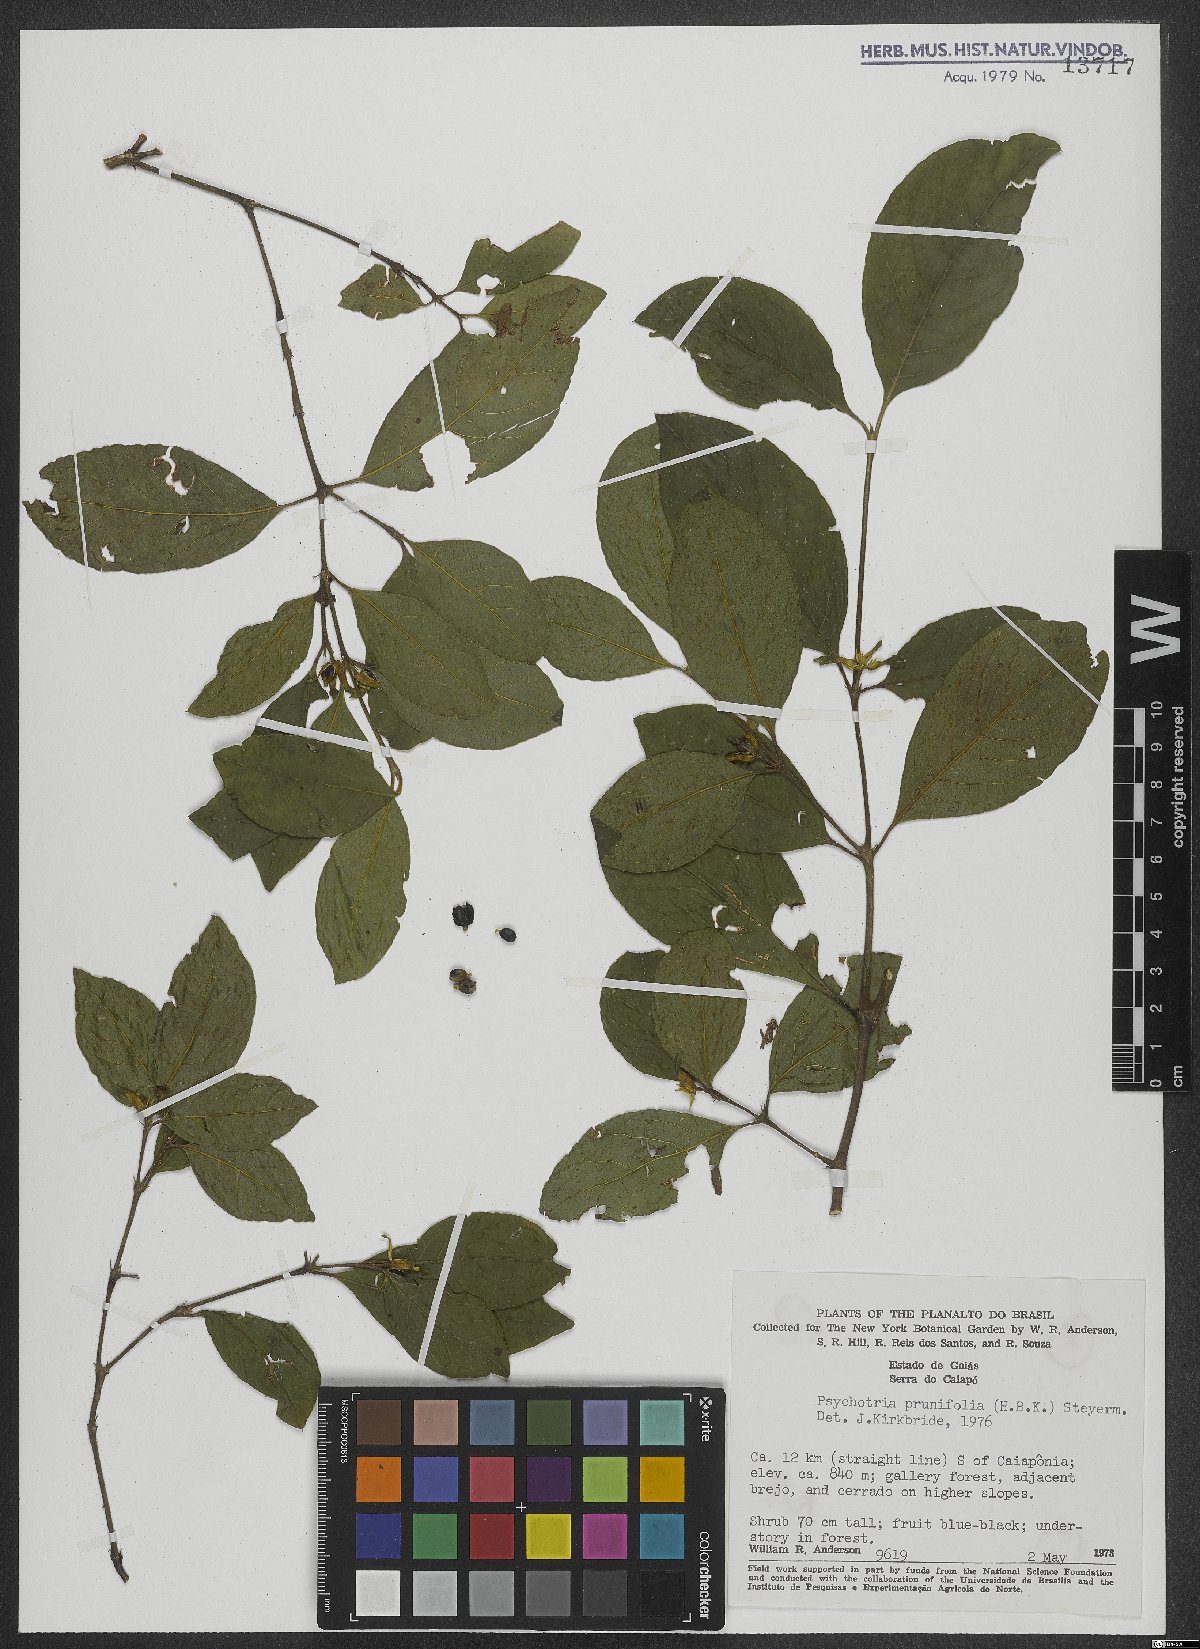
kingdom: Plantae
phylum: Tracheophyta
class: Magnoliopsida
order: Gentianales
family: Rubiaceae
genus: Palicourea
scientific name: Palicourea prunifolia
